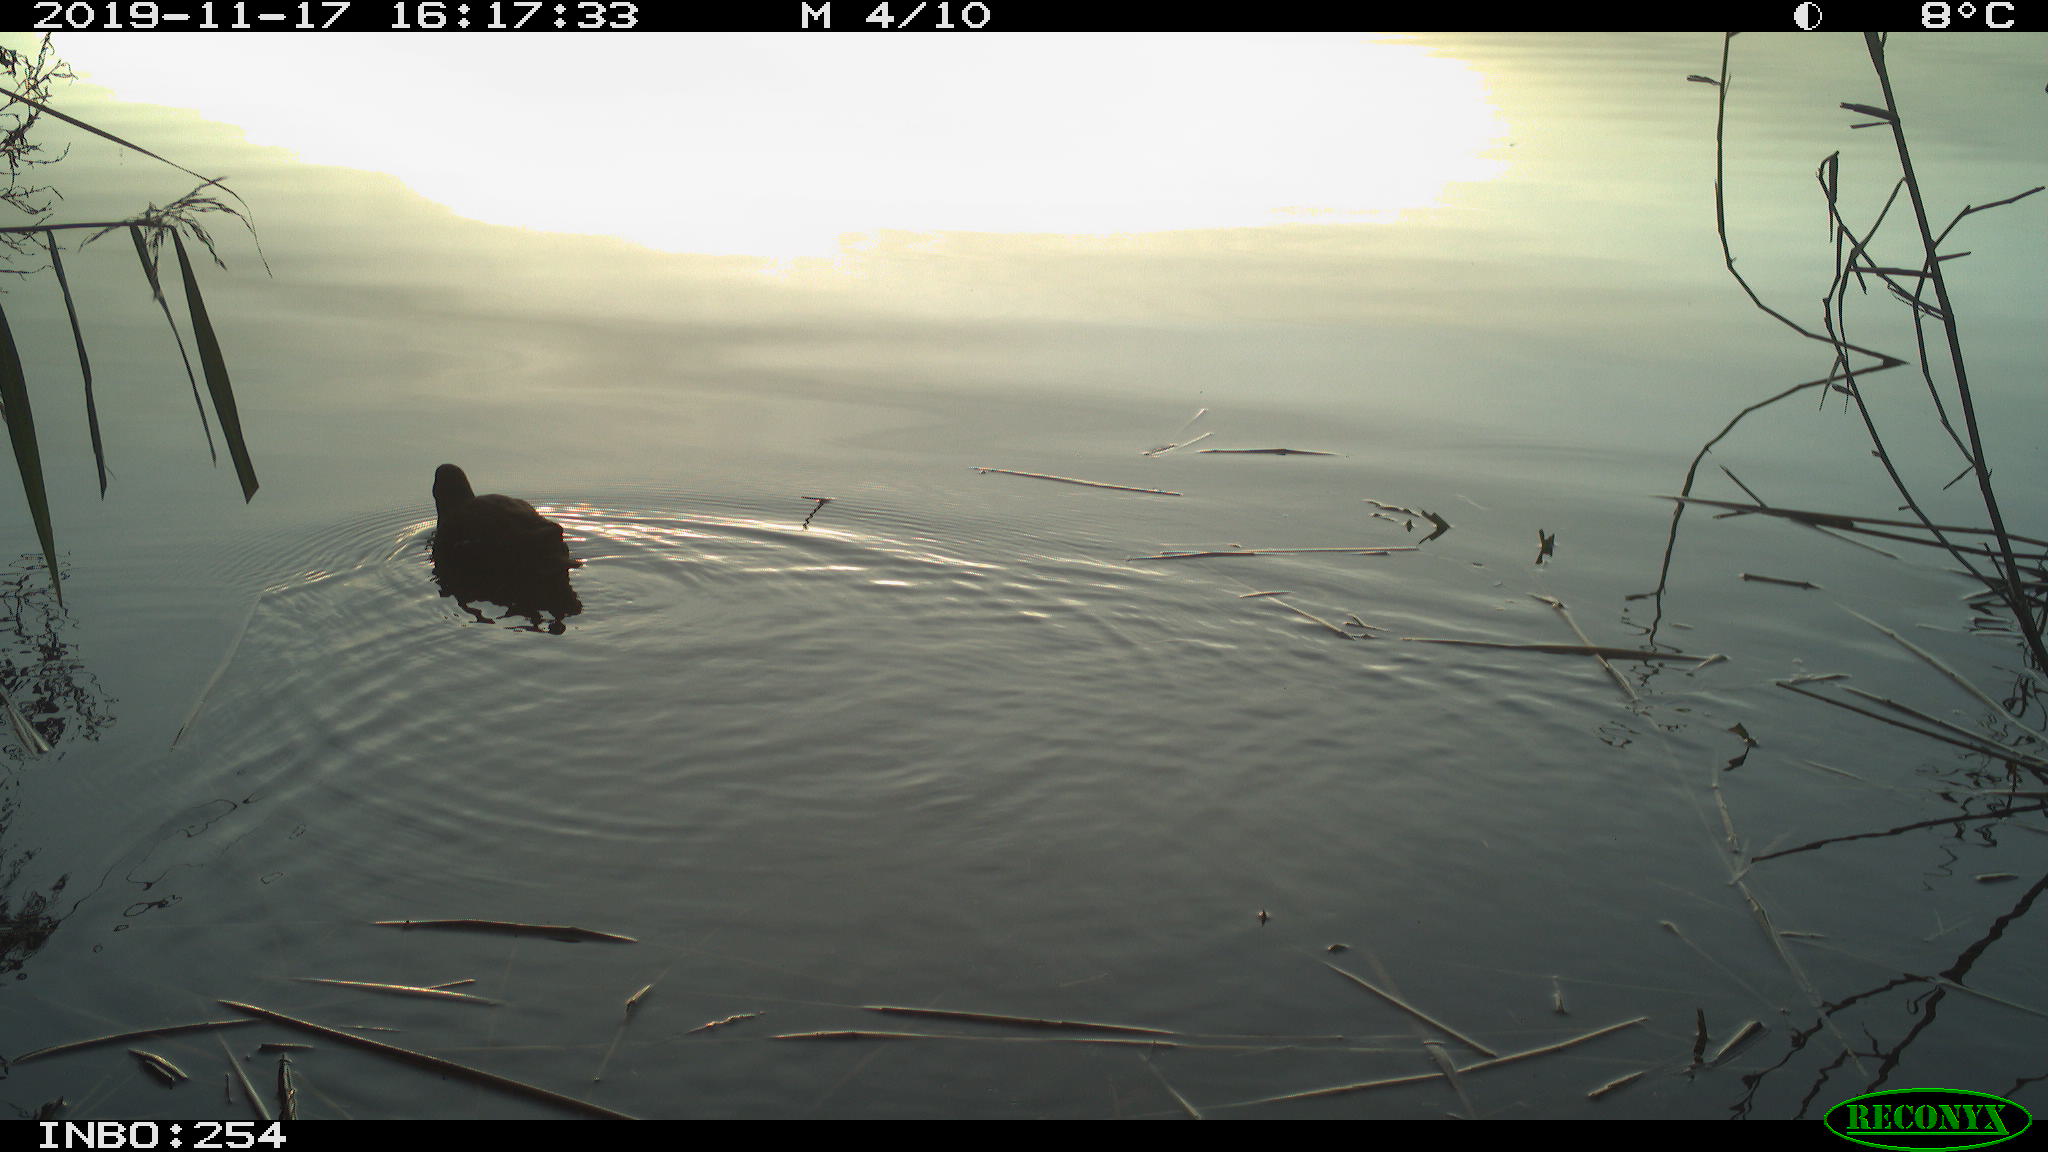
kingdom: Animalia
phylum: Chordata
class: Aves
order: Gruiformes
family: Rallidae
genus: Gallinula
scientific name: Gallinula chloropus
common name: Common moorhen
